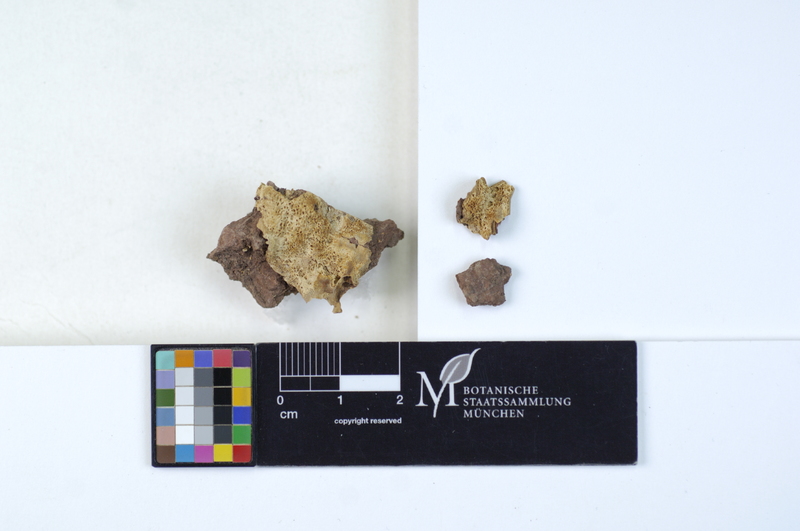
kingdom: Fungi
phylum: Basidiomycota
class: Agaricomycetes
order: Polyporales
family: Meruliaceae
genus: Physisporinus
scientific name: Physisporinus vitreus
